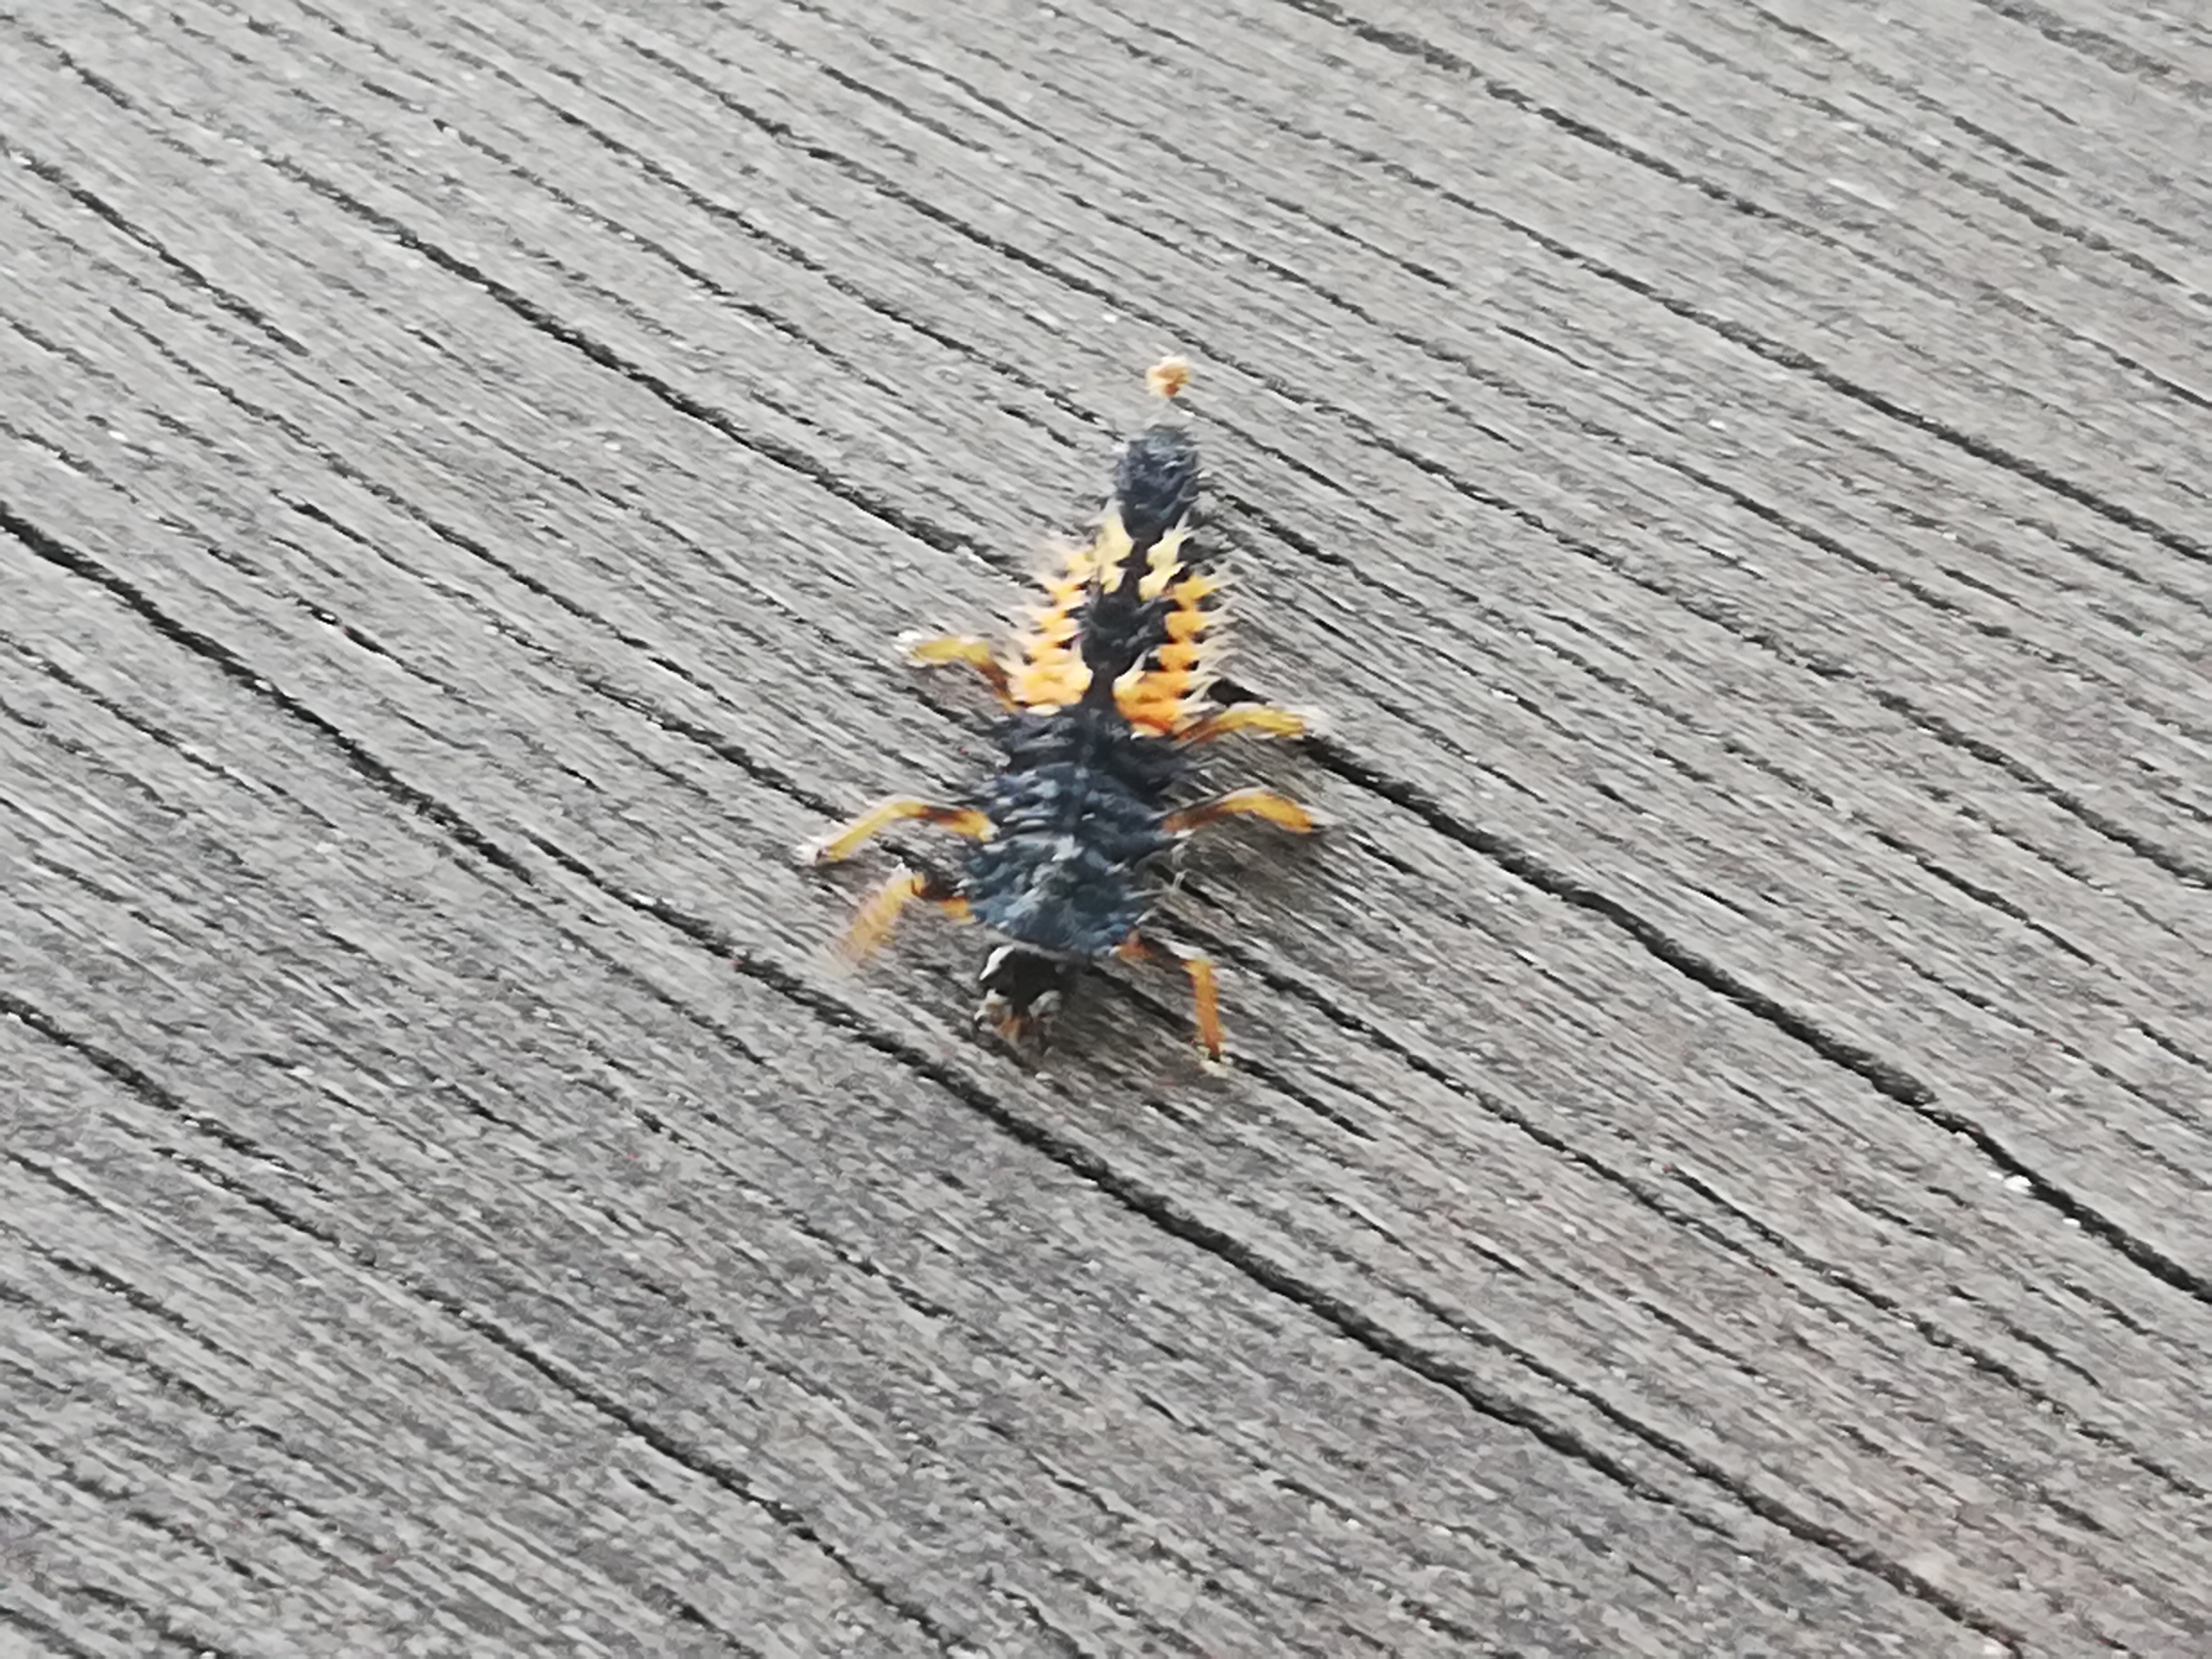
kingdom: Animalia
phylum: Arthropoda
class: Insecta
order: Coleoptera
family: Coccinellidae
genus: Harmonia
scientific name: Harmonia axyridis
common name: Harlekinmariehøne
